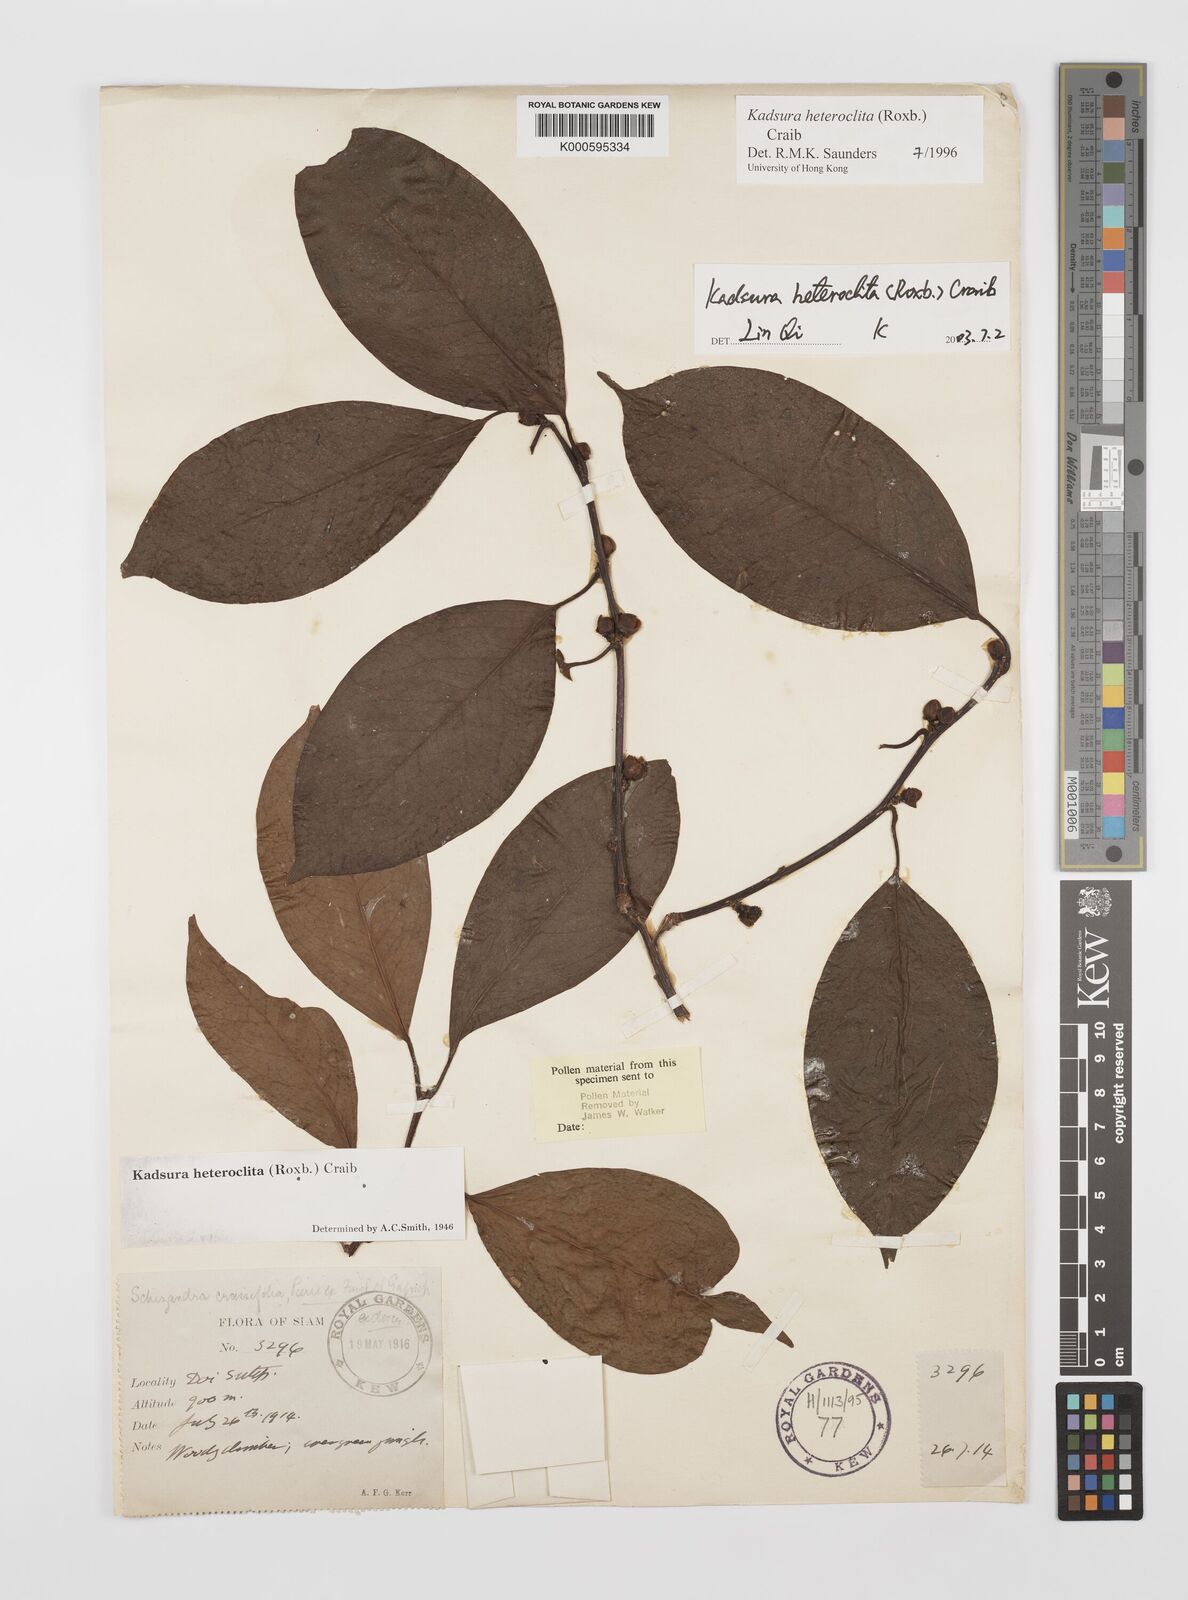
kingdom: Plantae
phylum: Tracheophyta
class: Magnoliopsida
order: Austrobaileyales
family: Schisandraceae
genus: Kadsura
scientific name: Kadsura heteroclita
